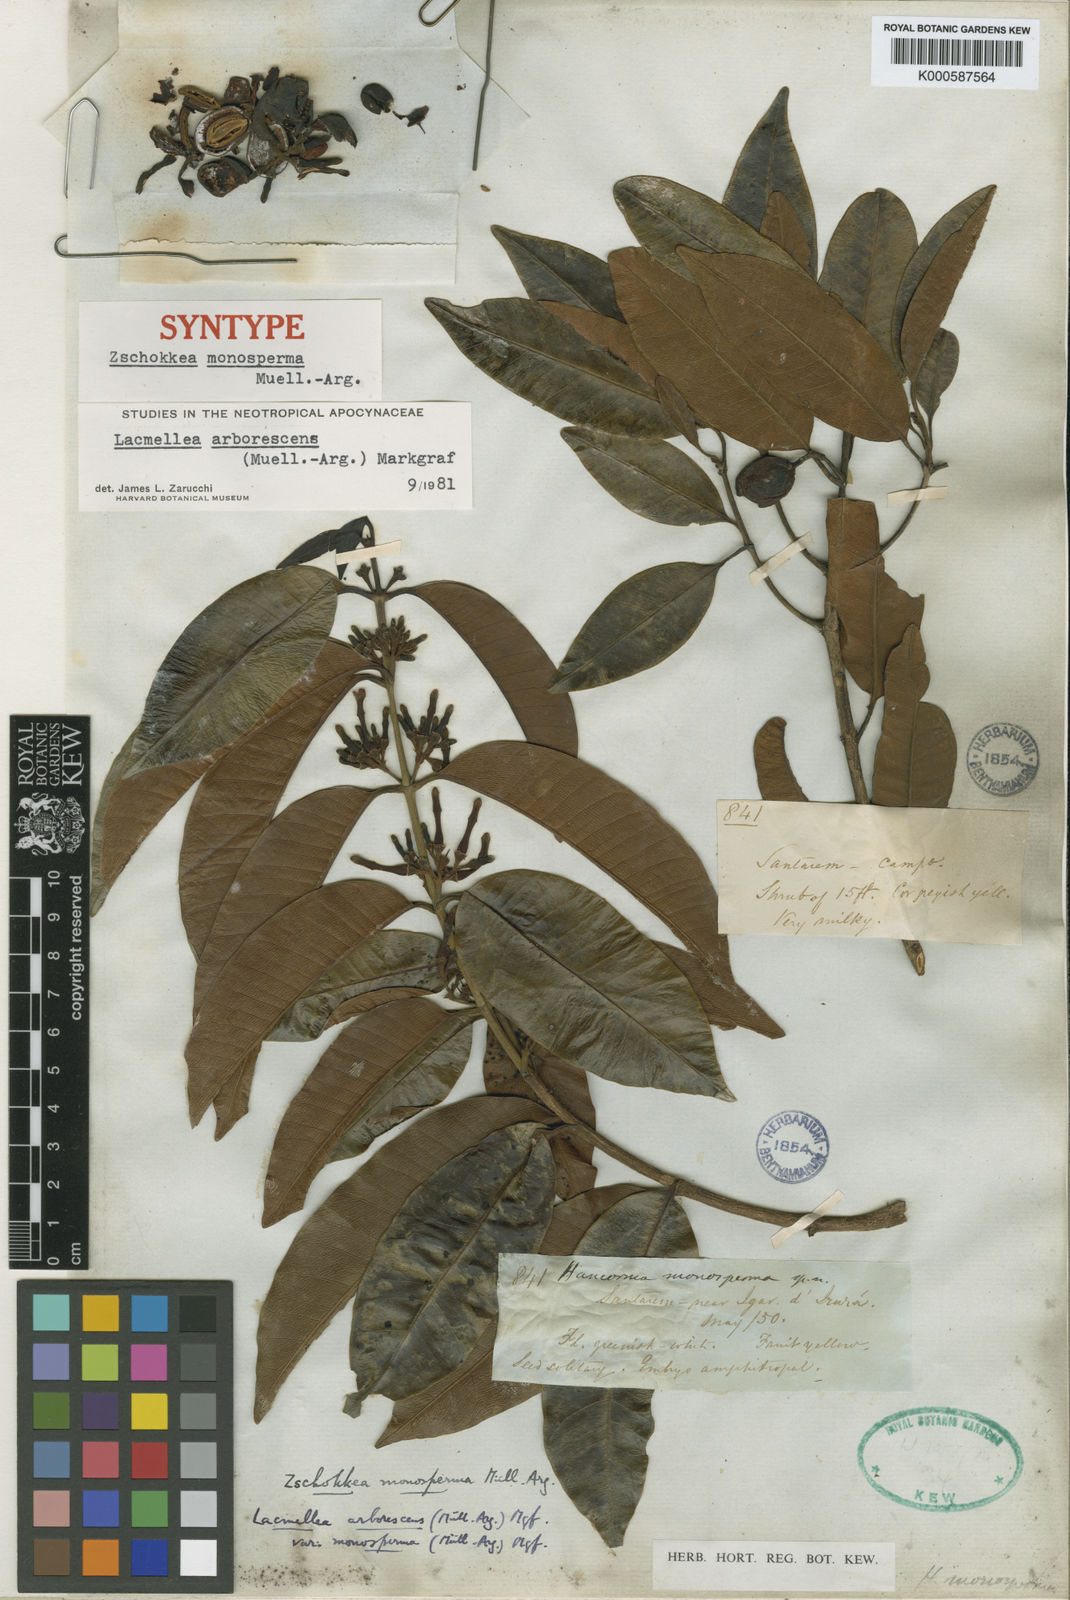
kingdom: Plantae
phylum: Tracheophyta
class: Magnoliopsida
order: Gentianales
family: Apocynaceae
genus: Lacmellea
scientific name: Lacmellea
